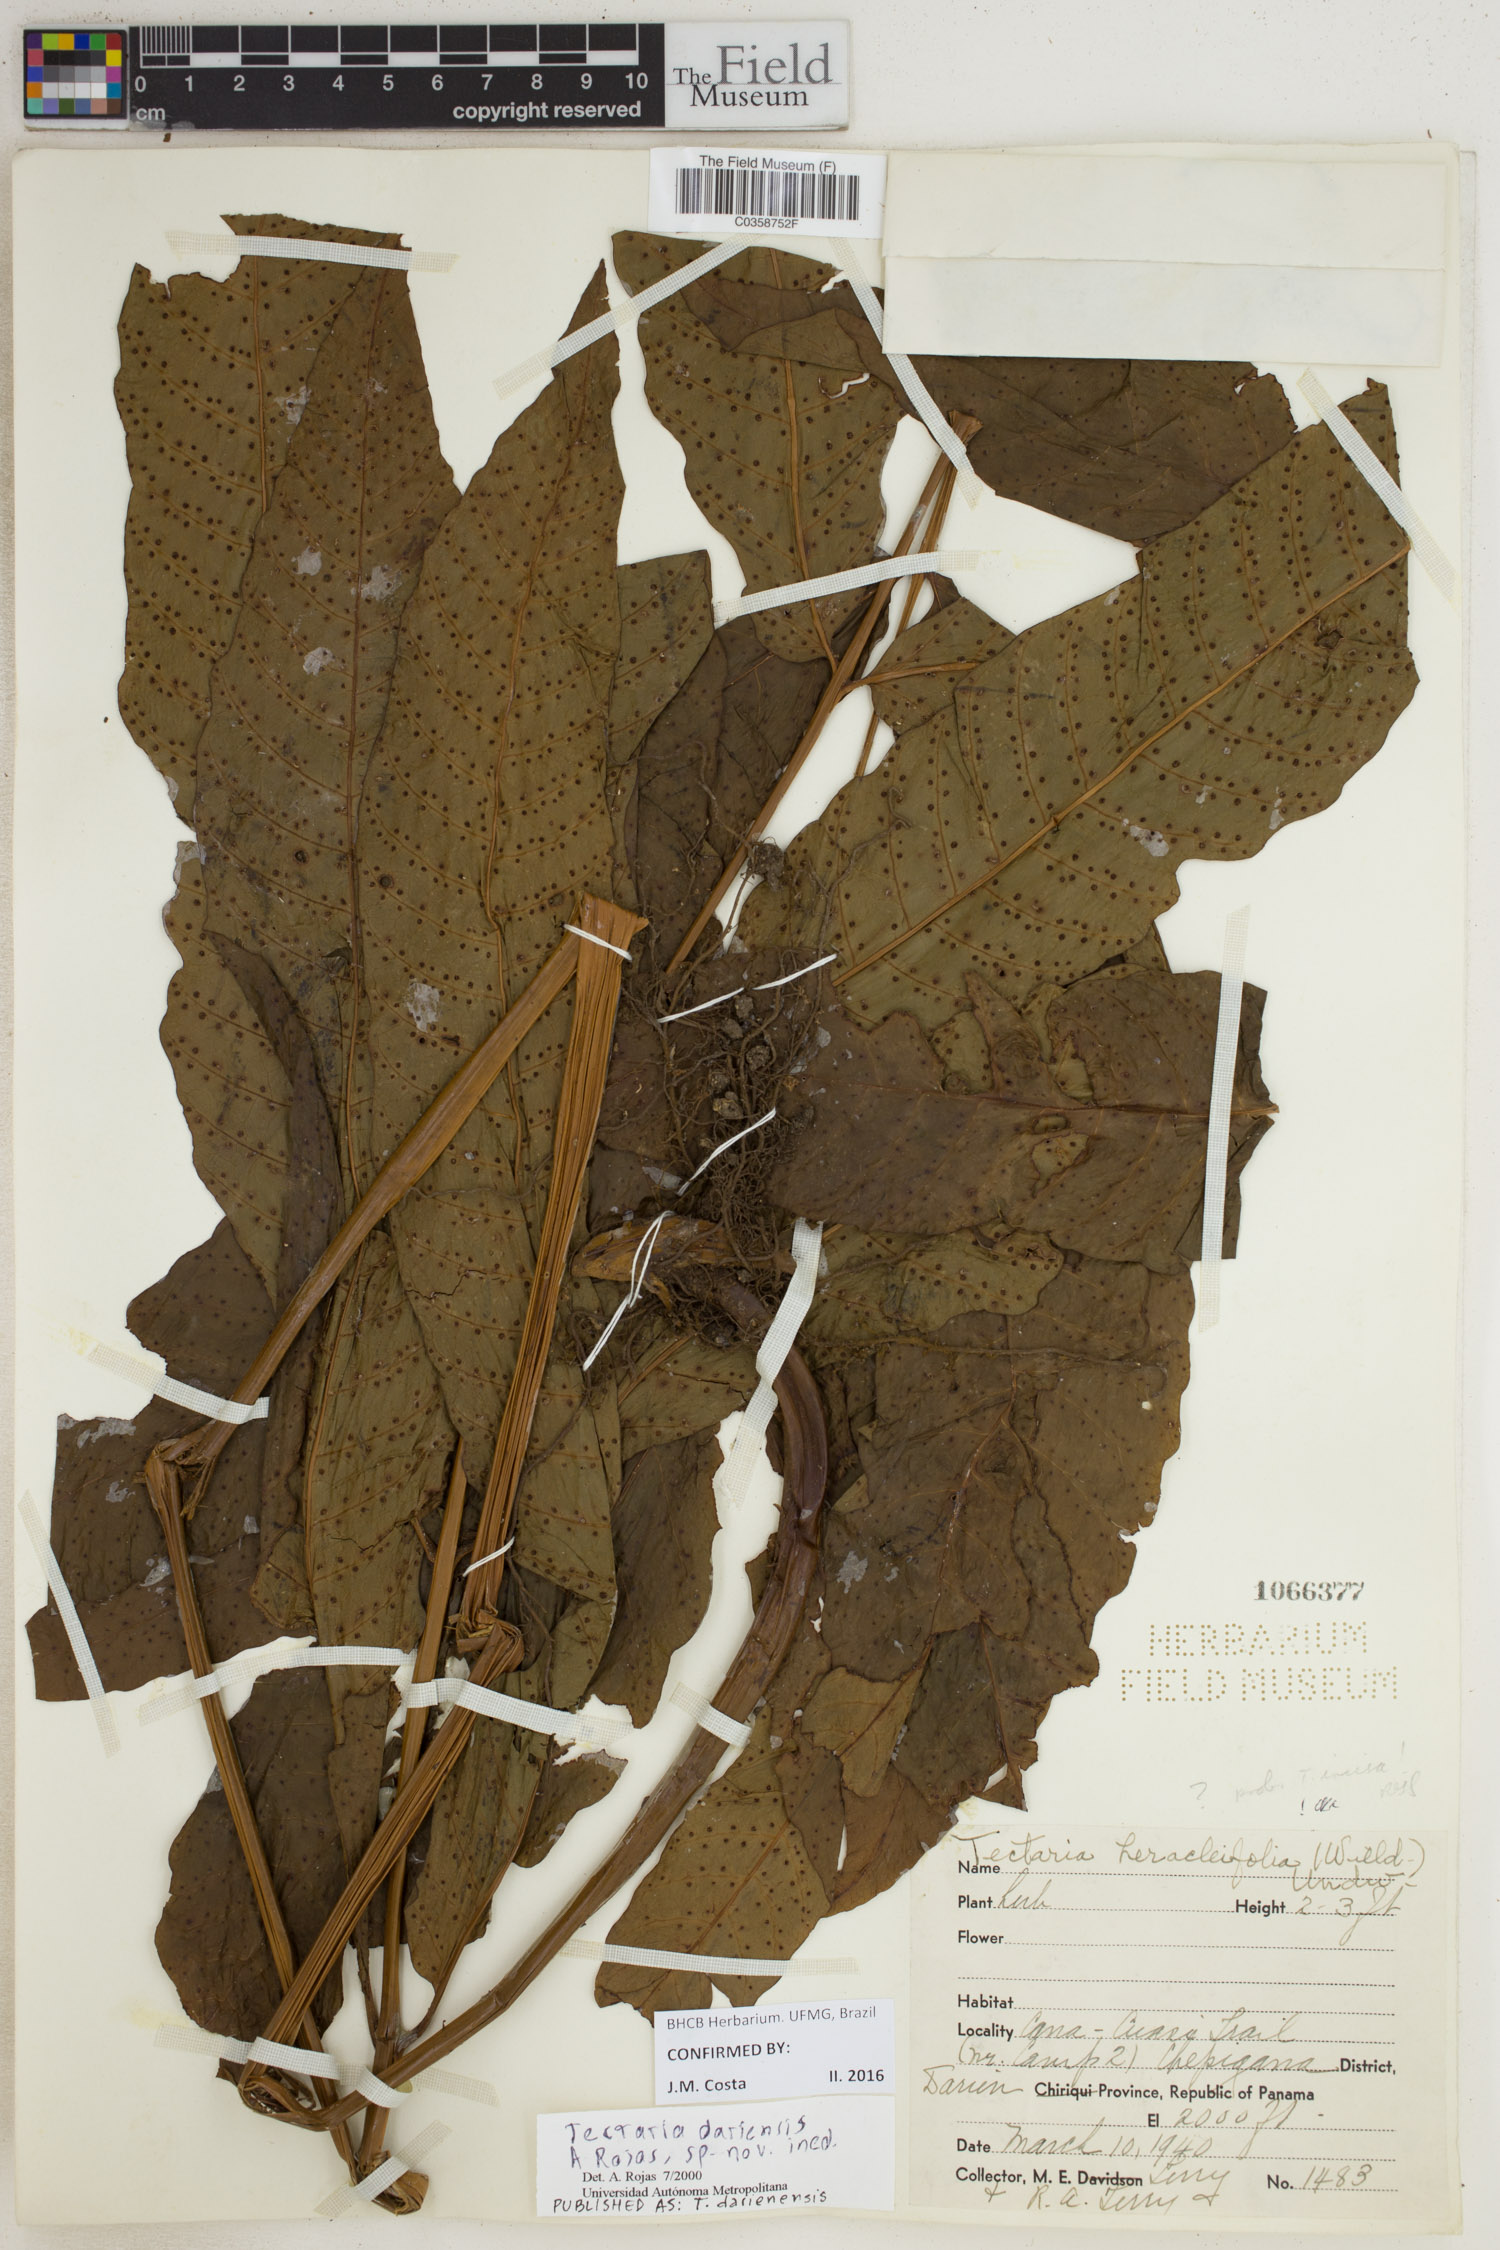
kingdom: Plantae
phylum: Tracheophyta
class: Polypodiopsida
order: Polypodiales
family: Tectariaceae
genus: Tectaria
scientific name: Tectaria darienensis
